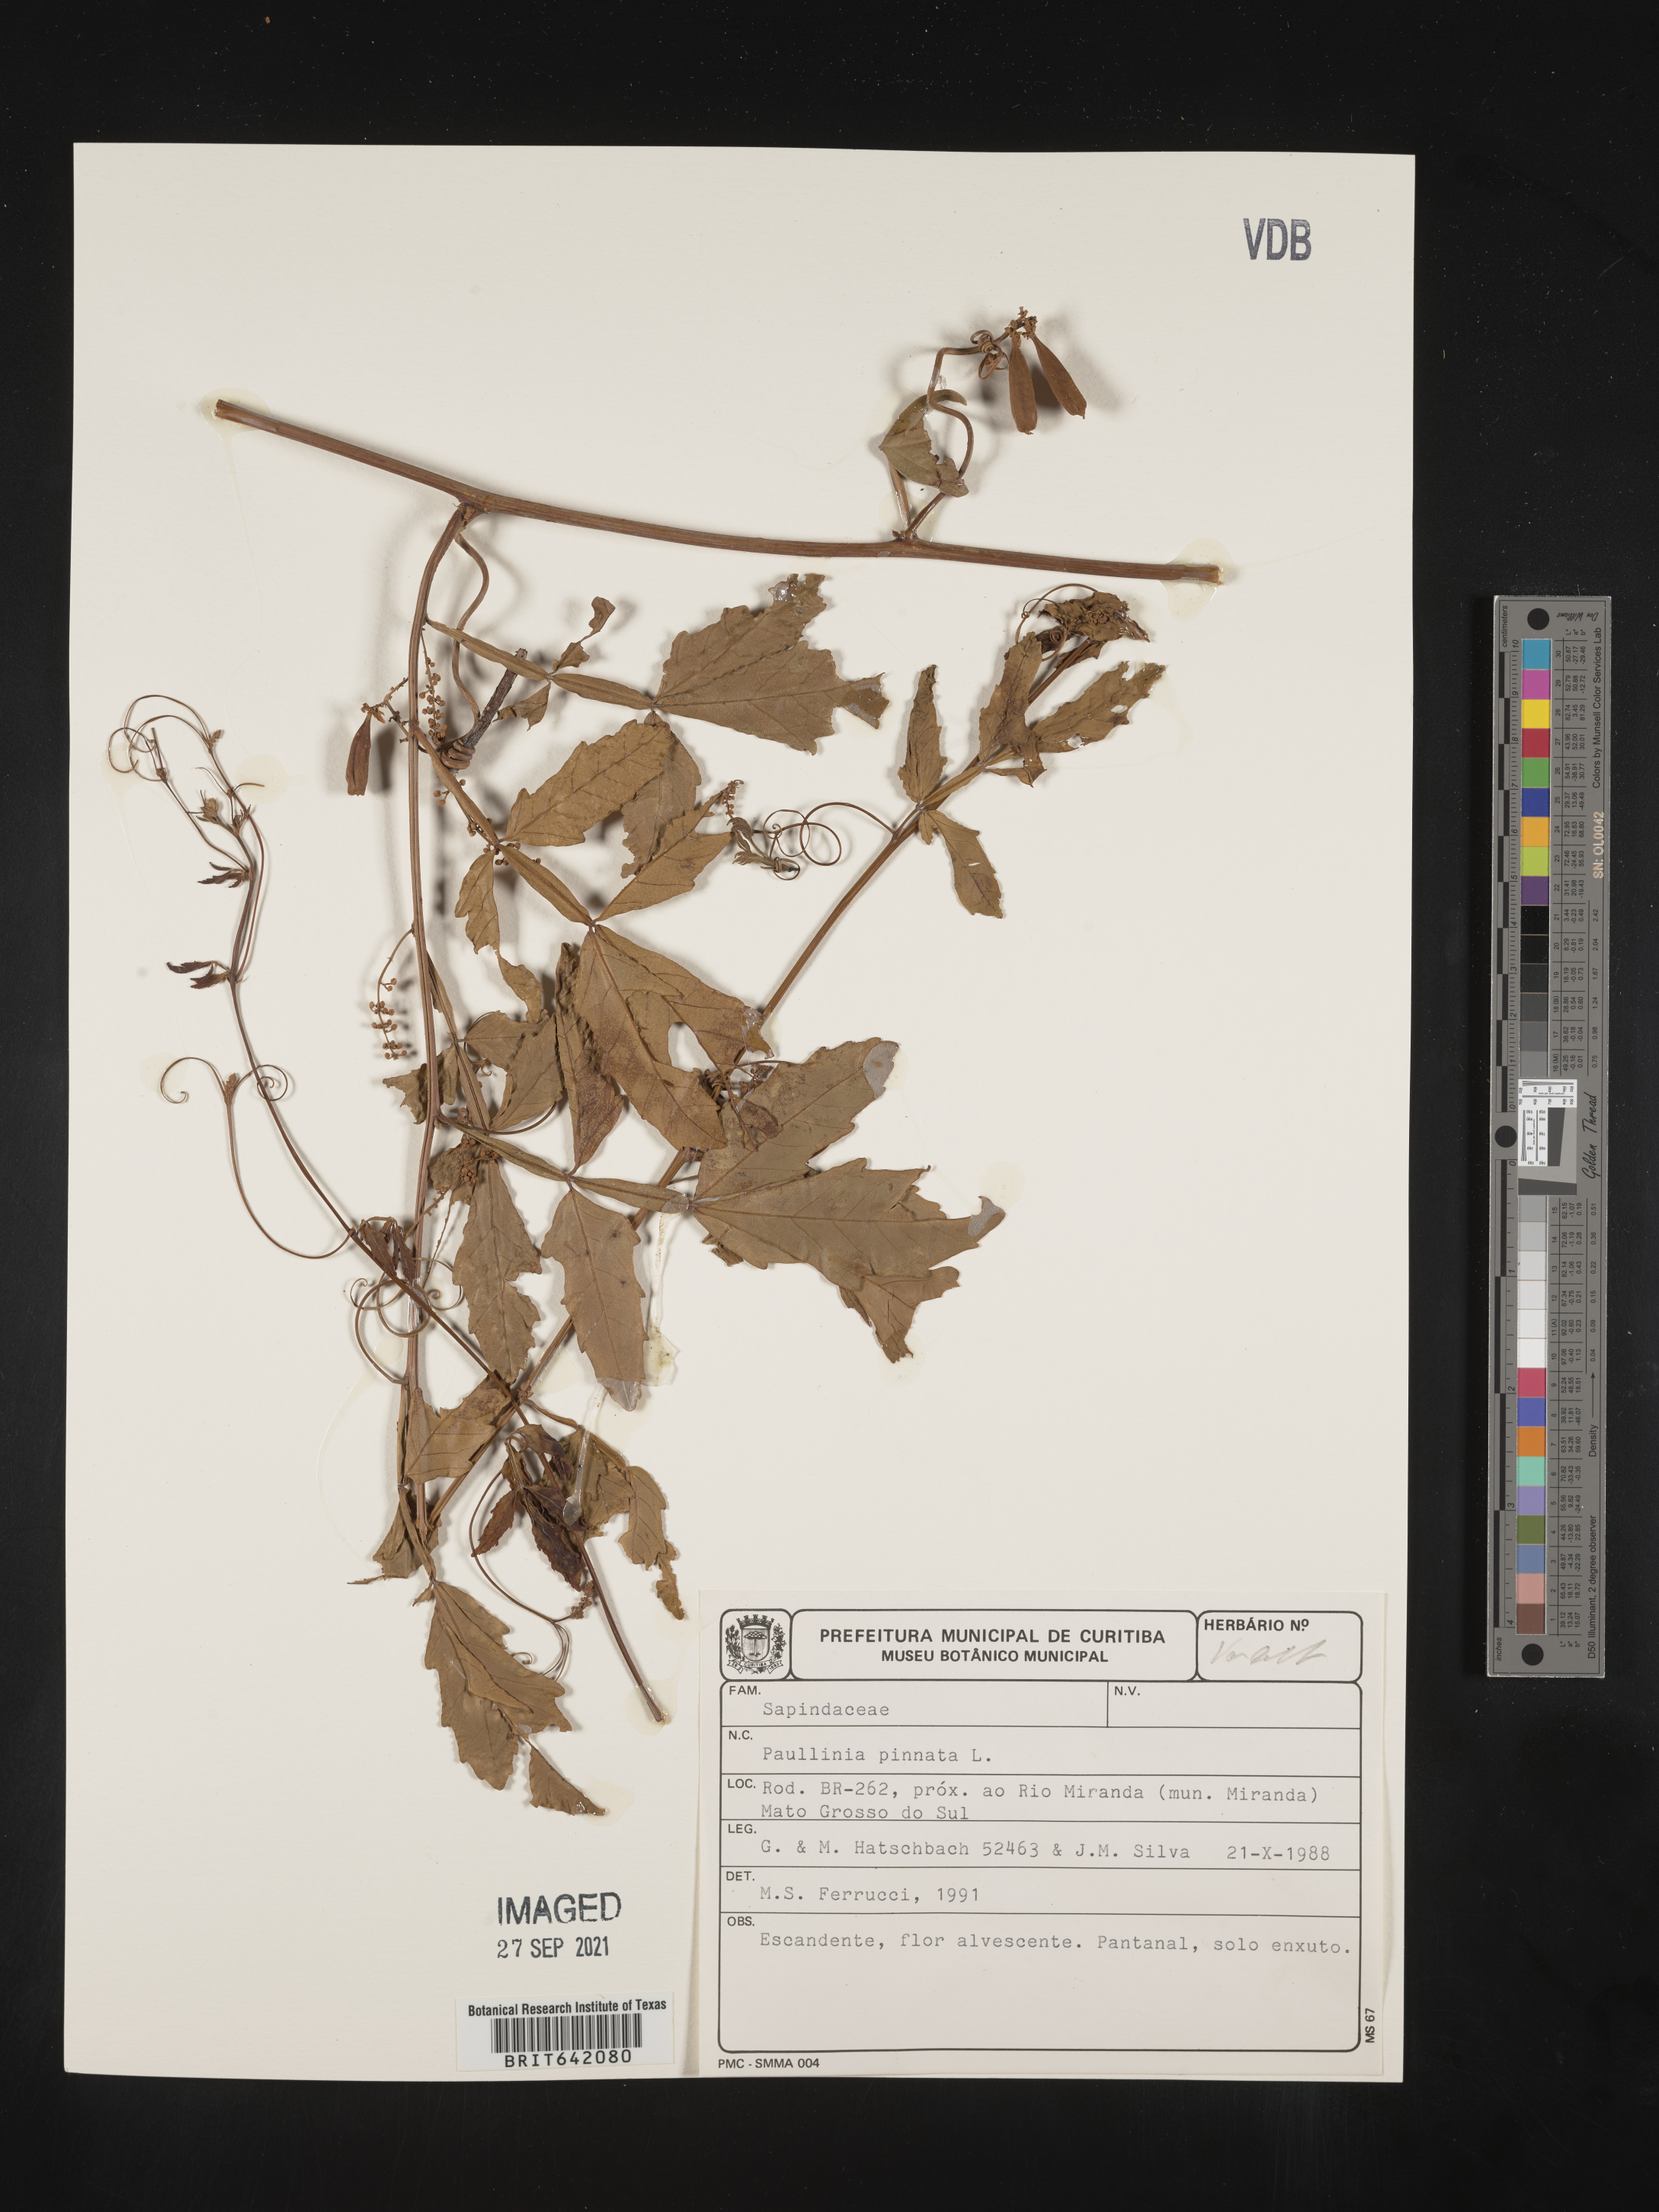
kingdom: Plantae
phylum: Tracheophyta
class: Magnoliopsida
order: Sapindales
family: Sapindaceae
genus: Paullinia
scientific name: Paullinia
